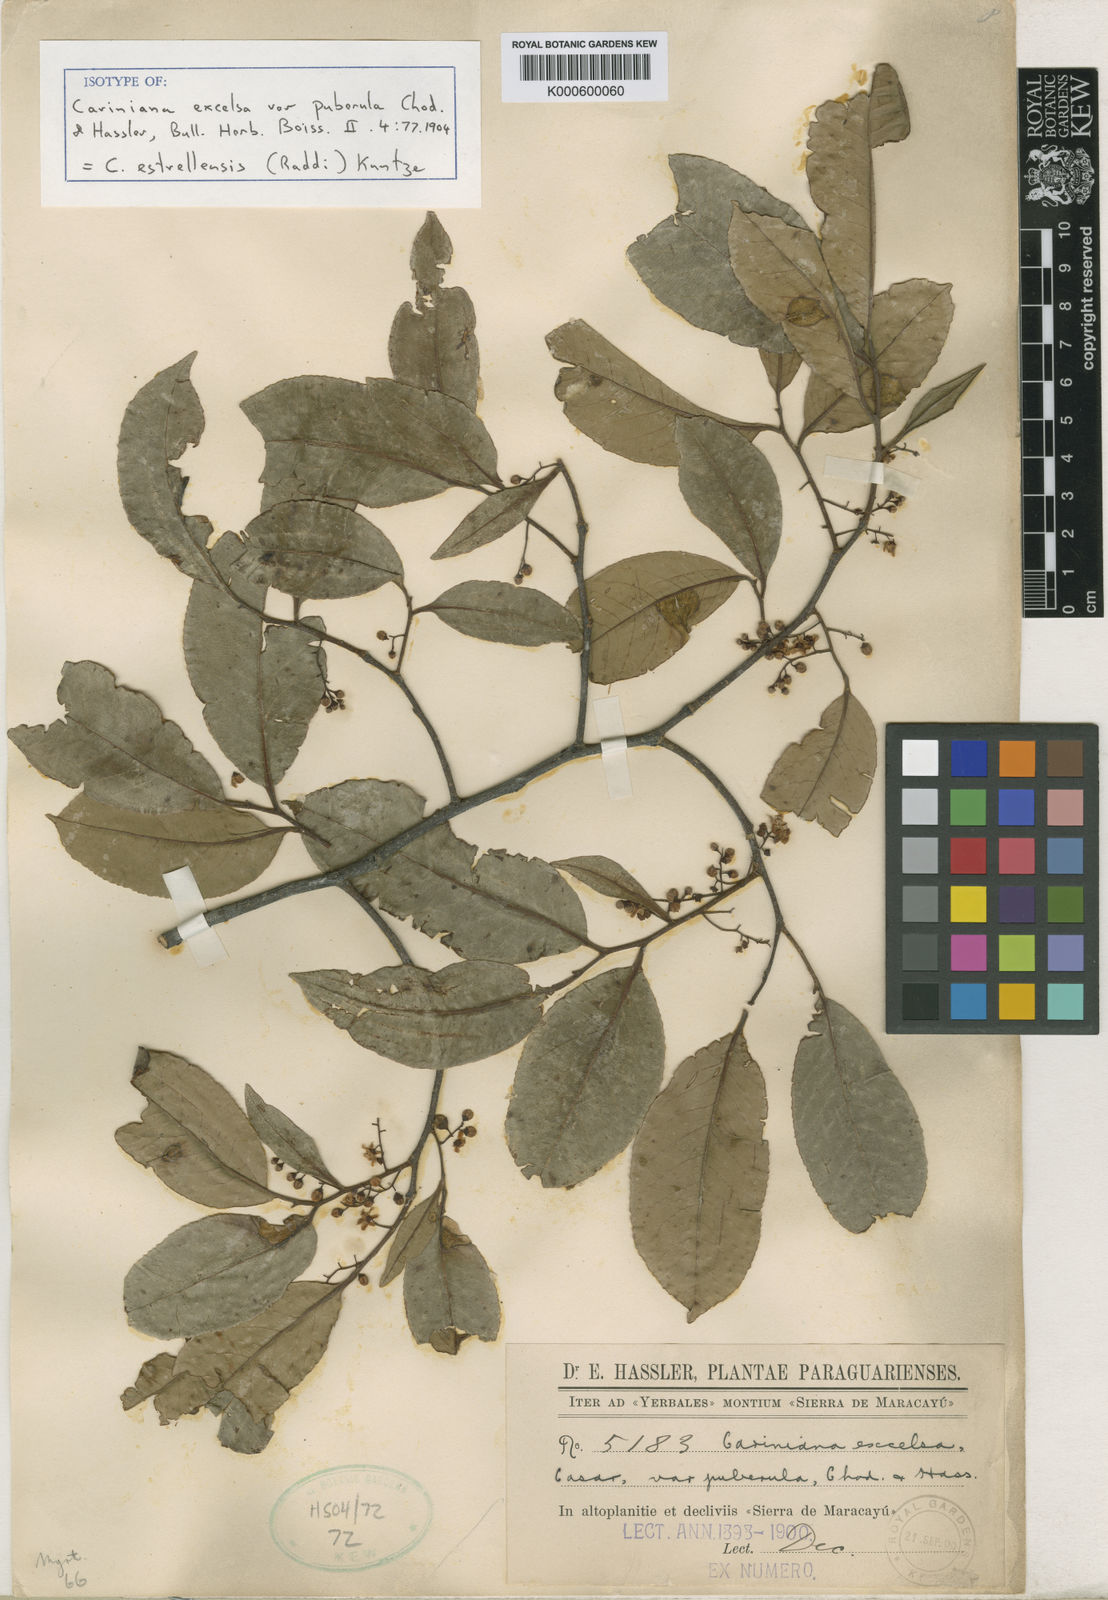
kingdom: Plantae
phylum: Tracheophyta
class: Magnoliopsida
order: Ericales
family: Lecythidaceae
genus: Cariniana
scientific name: Cariniana estrellensis
